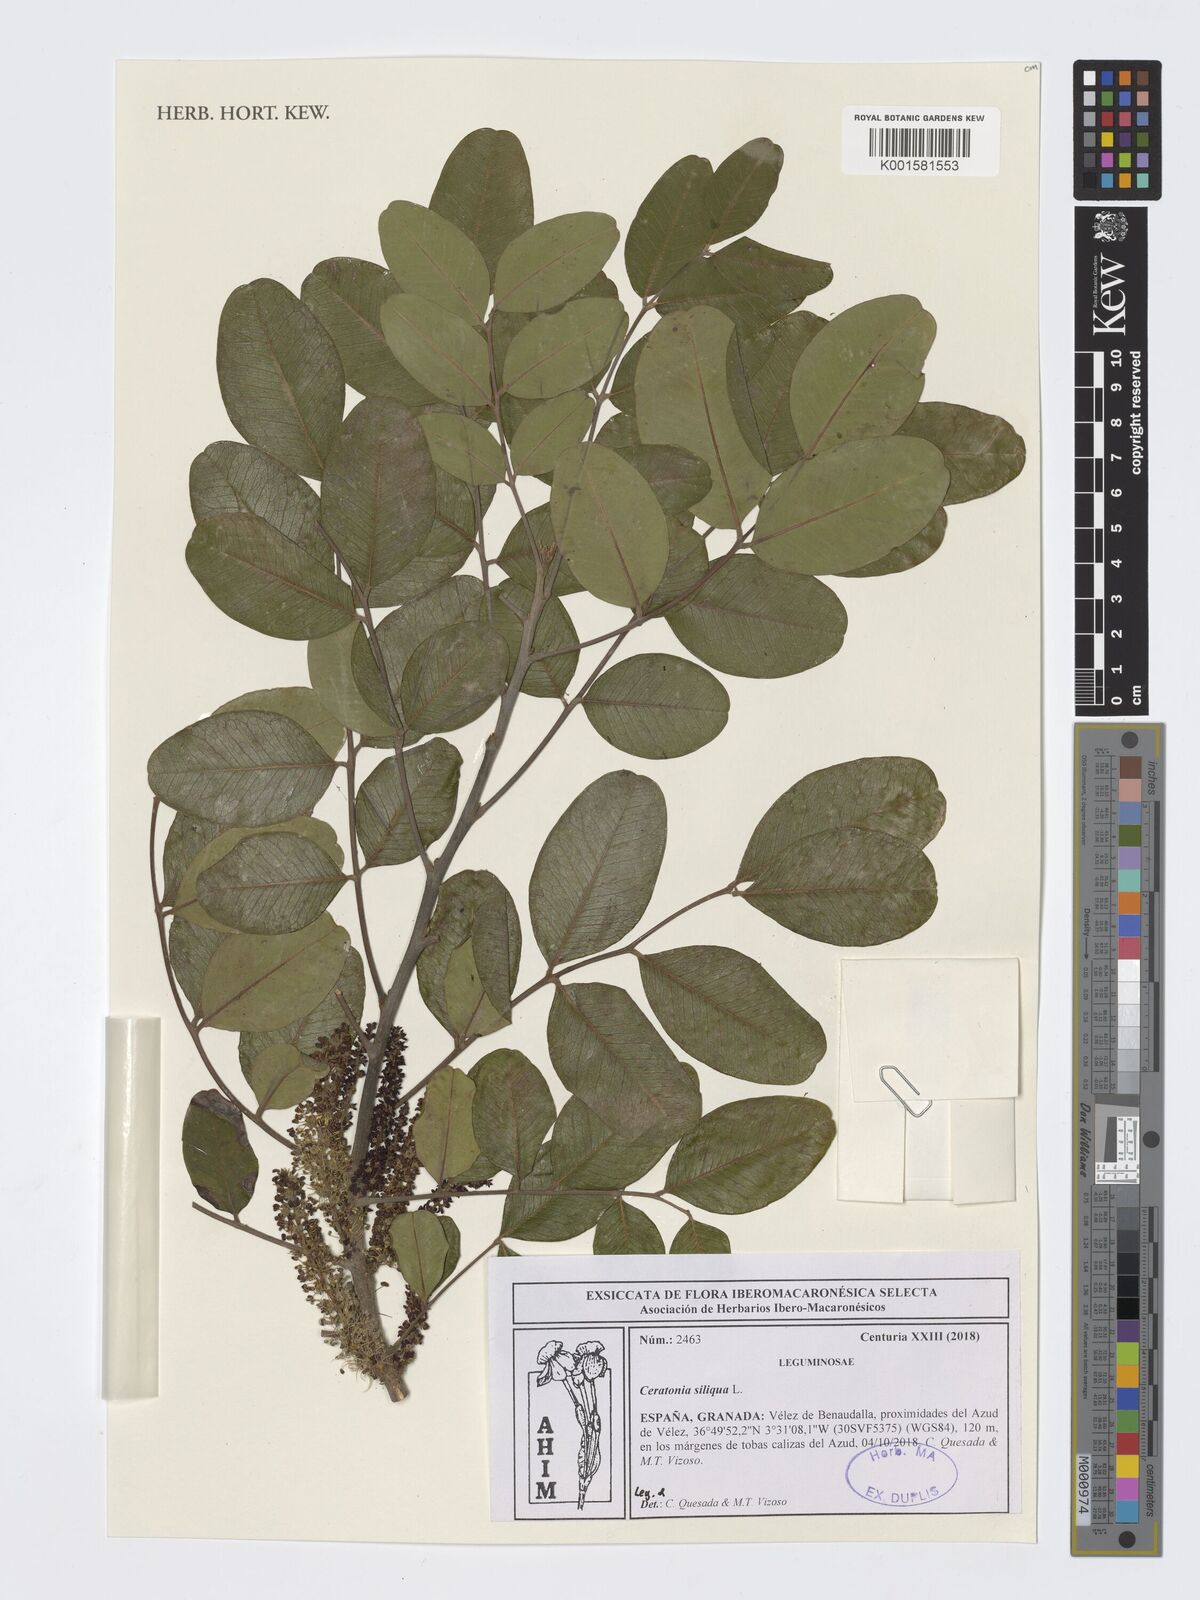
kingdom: Plantae
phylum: Tracheophyta
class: Magnoliopsida
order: Fabales
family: Fabaceae
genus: Ceratonia
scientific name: Ceratonia siliqua
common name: Carob
